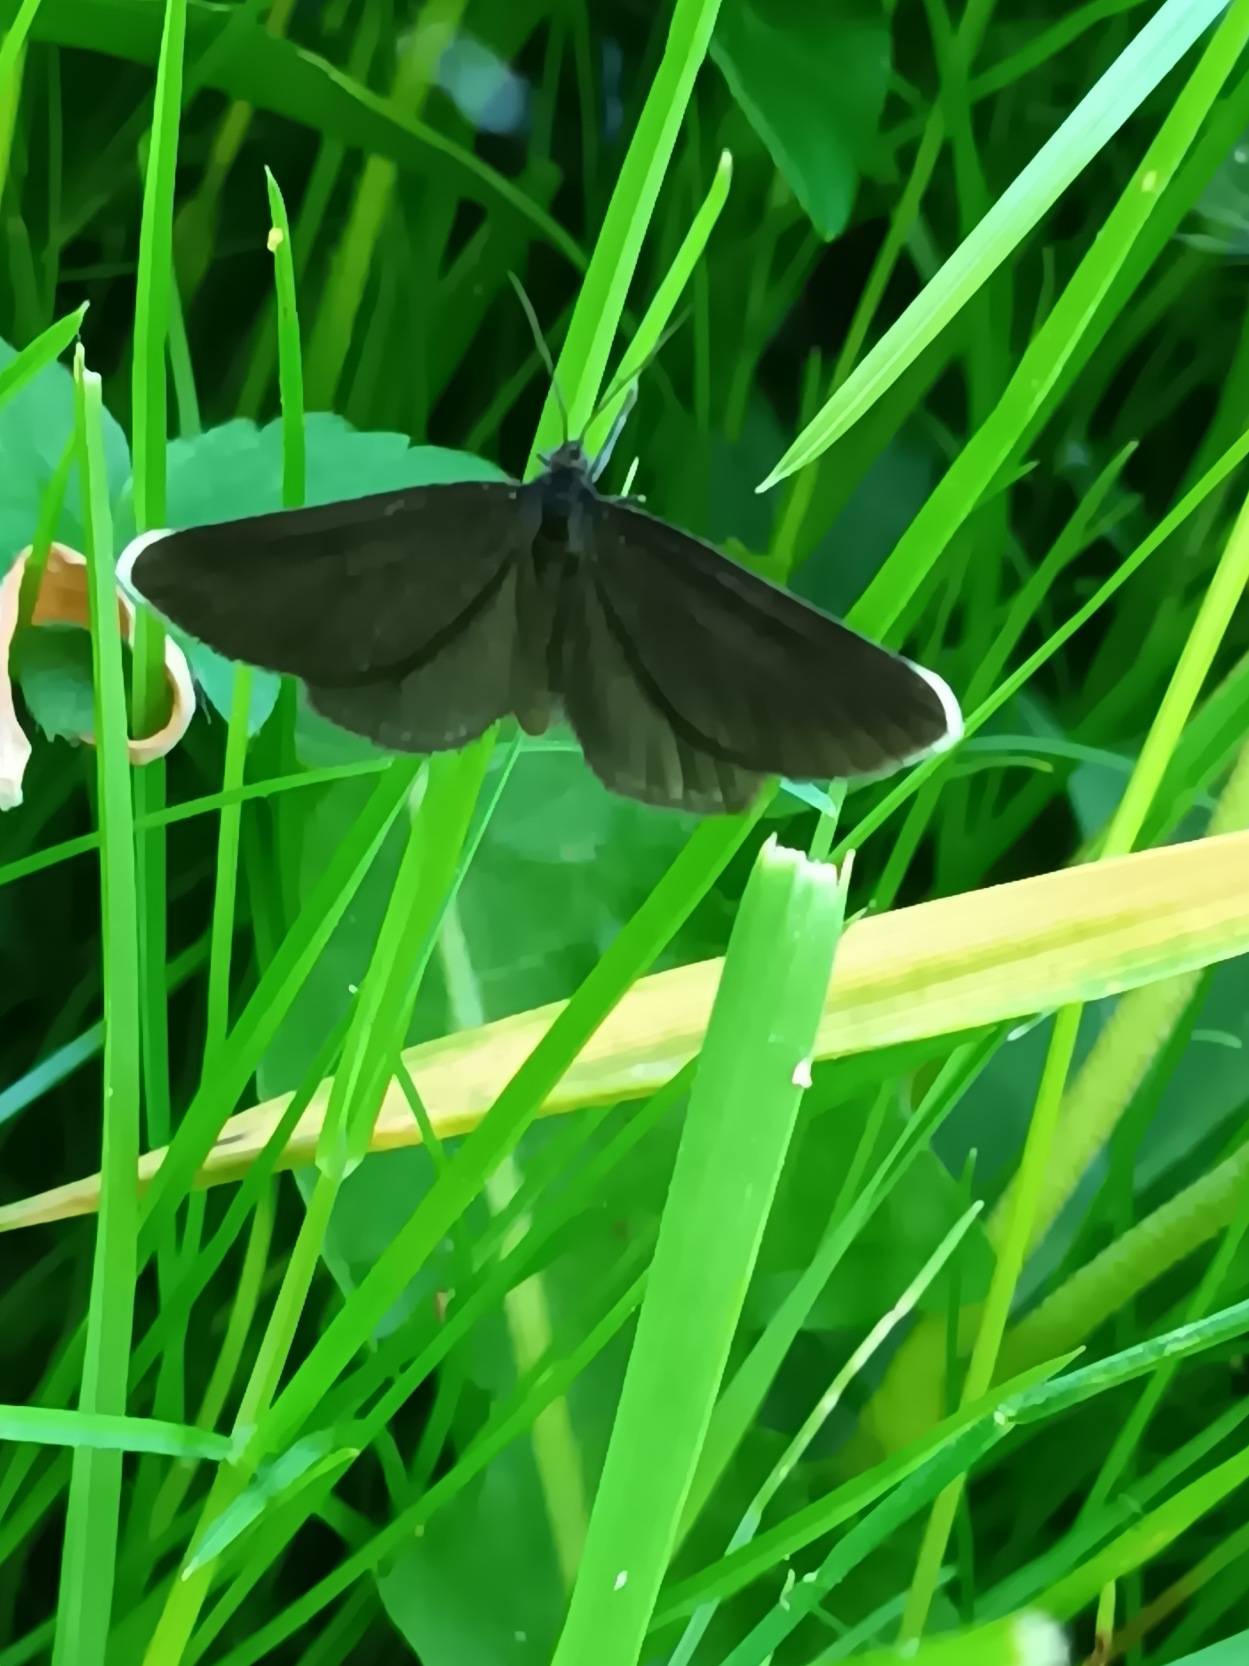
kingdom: Animalia
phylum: Arthropoda
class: Insecta
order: Lepidoptera
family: Geometridae
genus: Odezia
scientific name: Odezia atrata
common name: Sort måler
